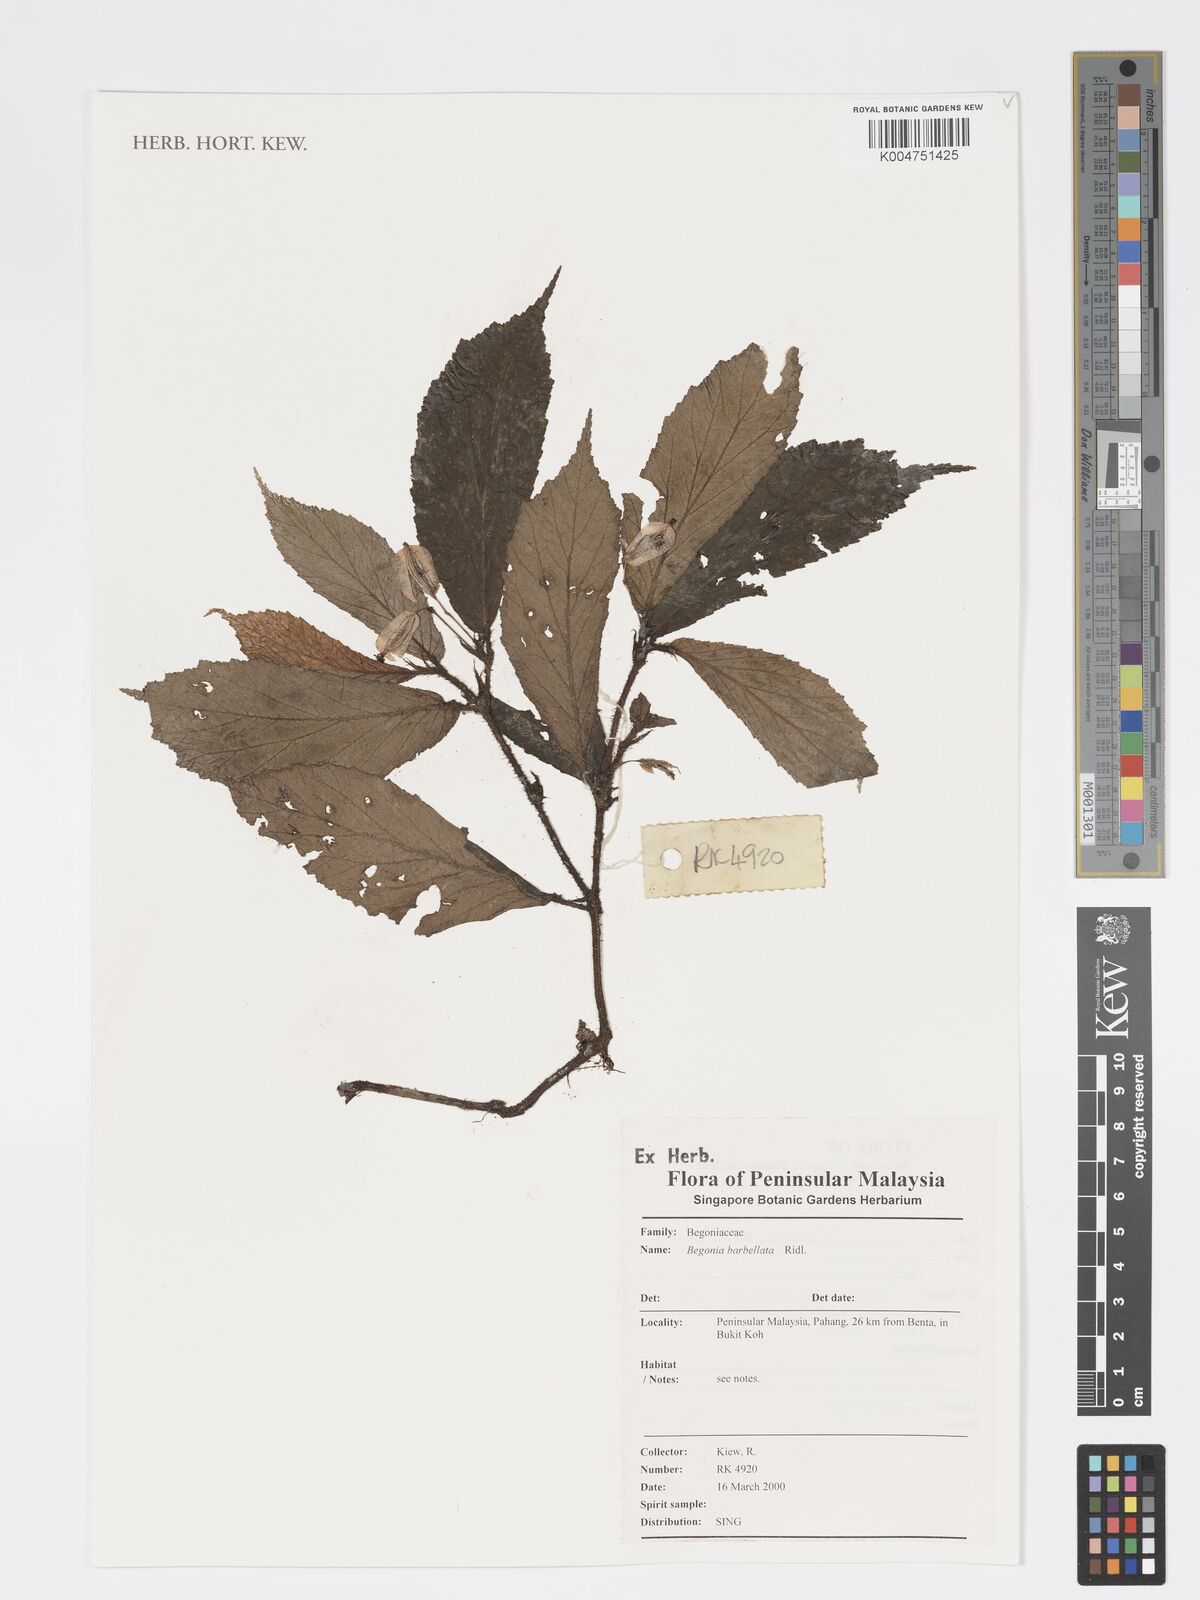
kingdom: Plantae
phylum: Tracheophyta
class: Magnoliopsida
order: Cucurbitales
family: Begoniaceae
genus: Begonia
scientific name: Begonia barbellata
